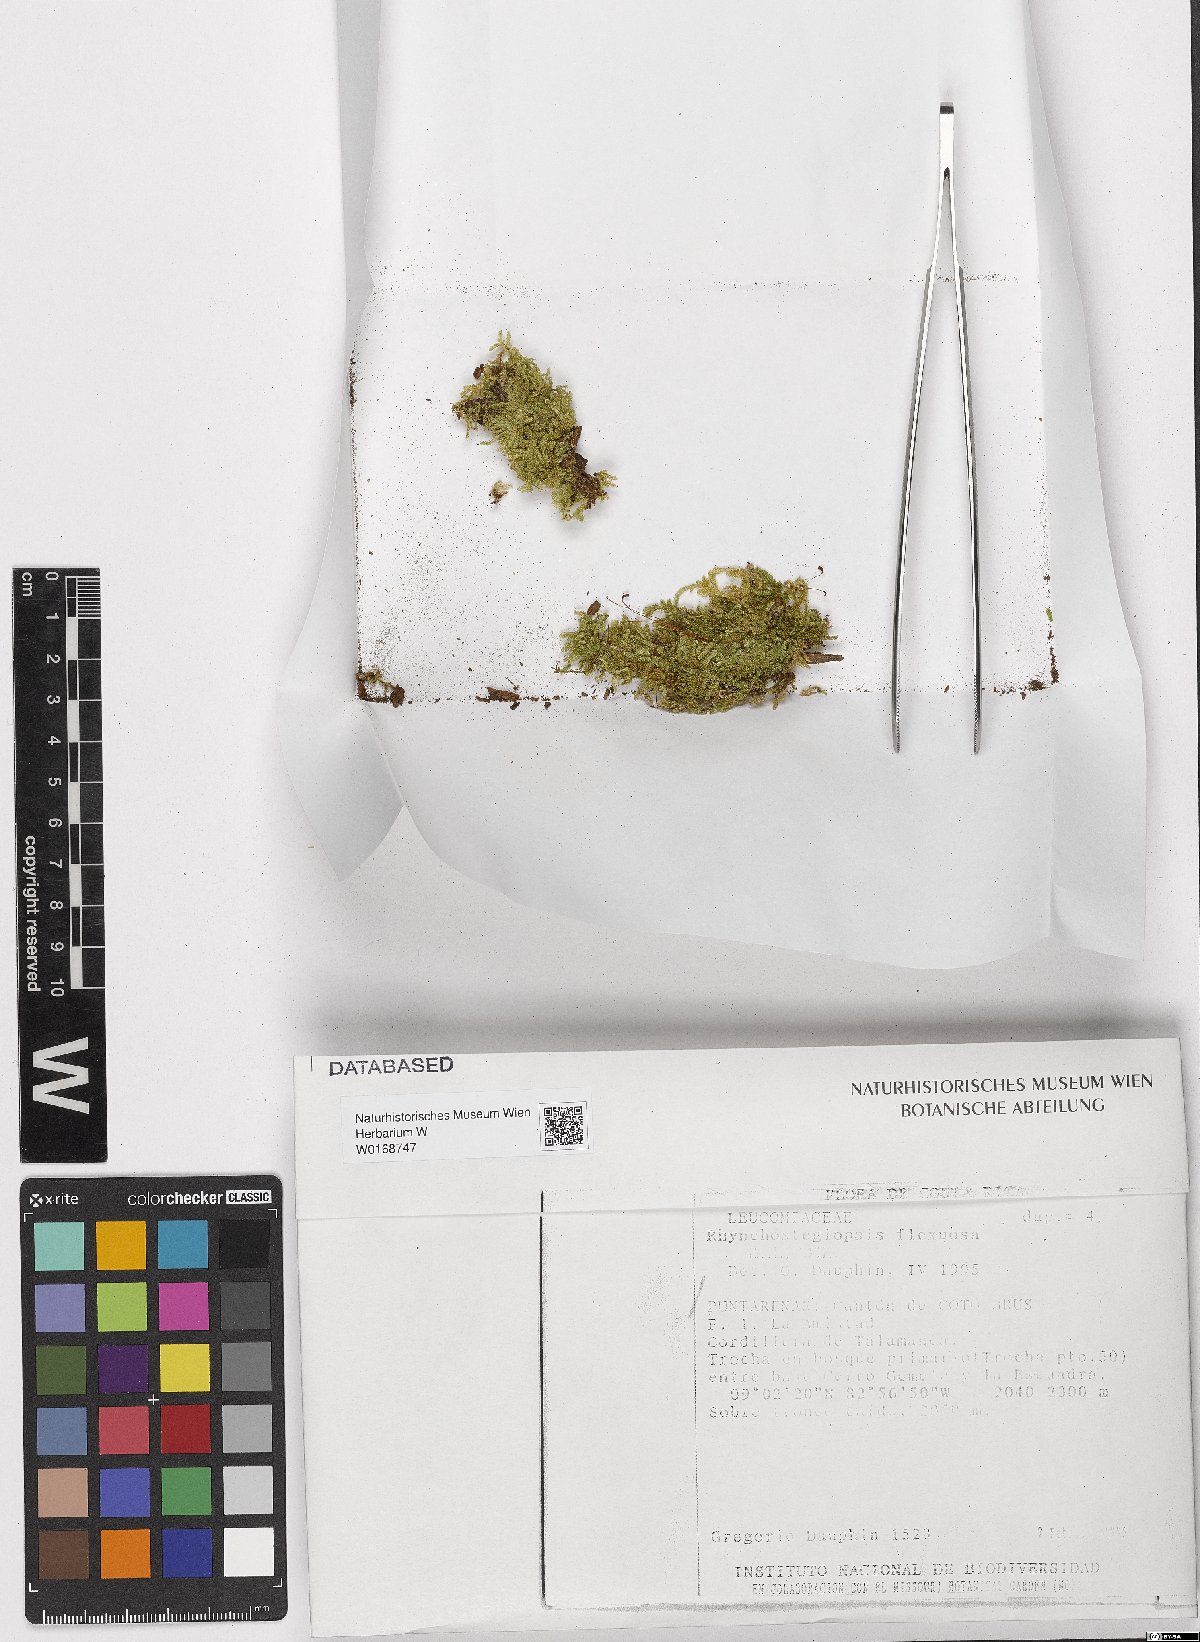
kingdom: Plantae
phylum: Bryophyta
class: Bryopsida
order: Hookeriales
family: Leucomiaceae
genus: Rhynchostegiopsis
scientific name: Rhynchostegiopsis flexuosa
